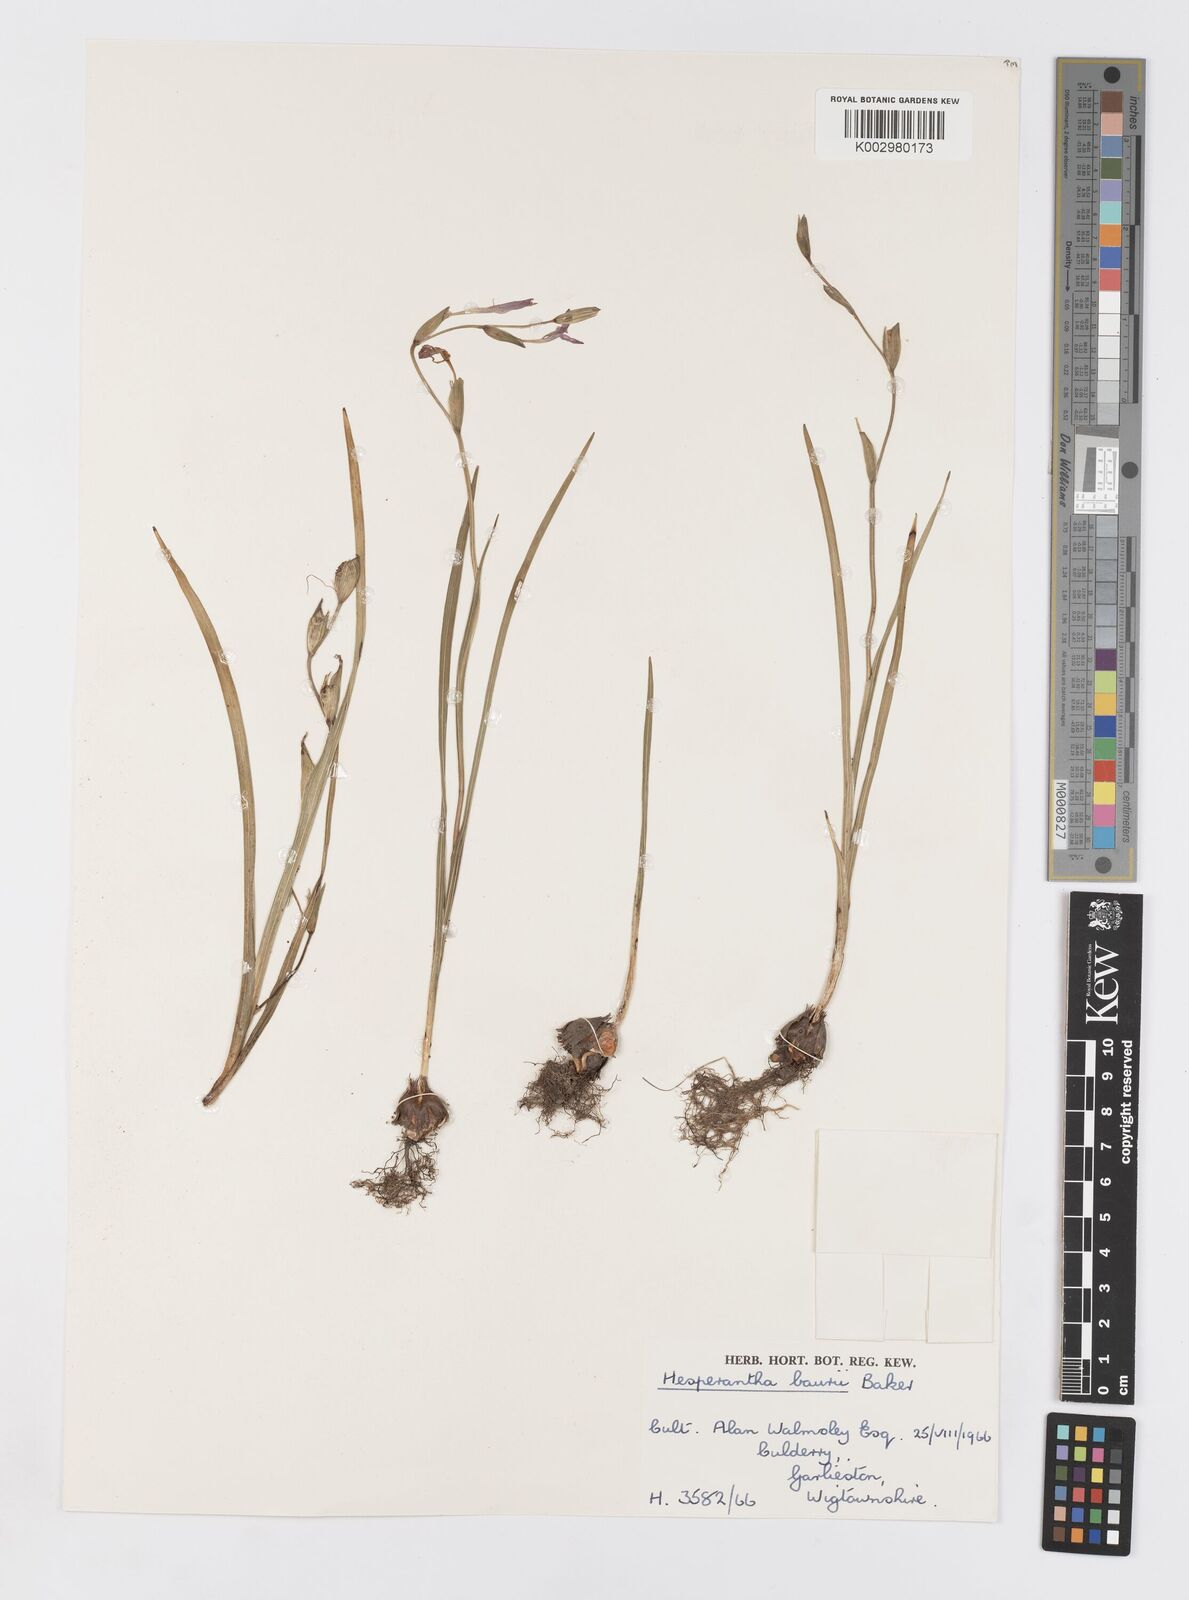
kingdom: Plantae
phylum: Tracheophyta
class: Liliopsida
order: Asparagales
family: Iridaceae
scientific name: Iridaceae
